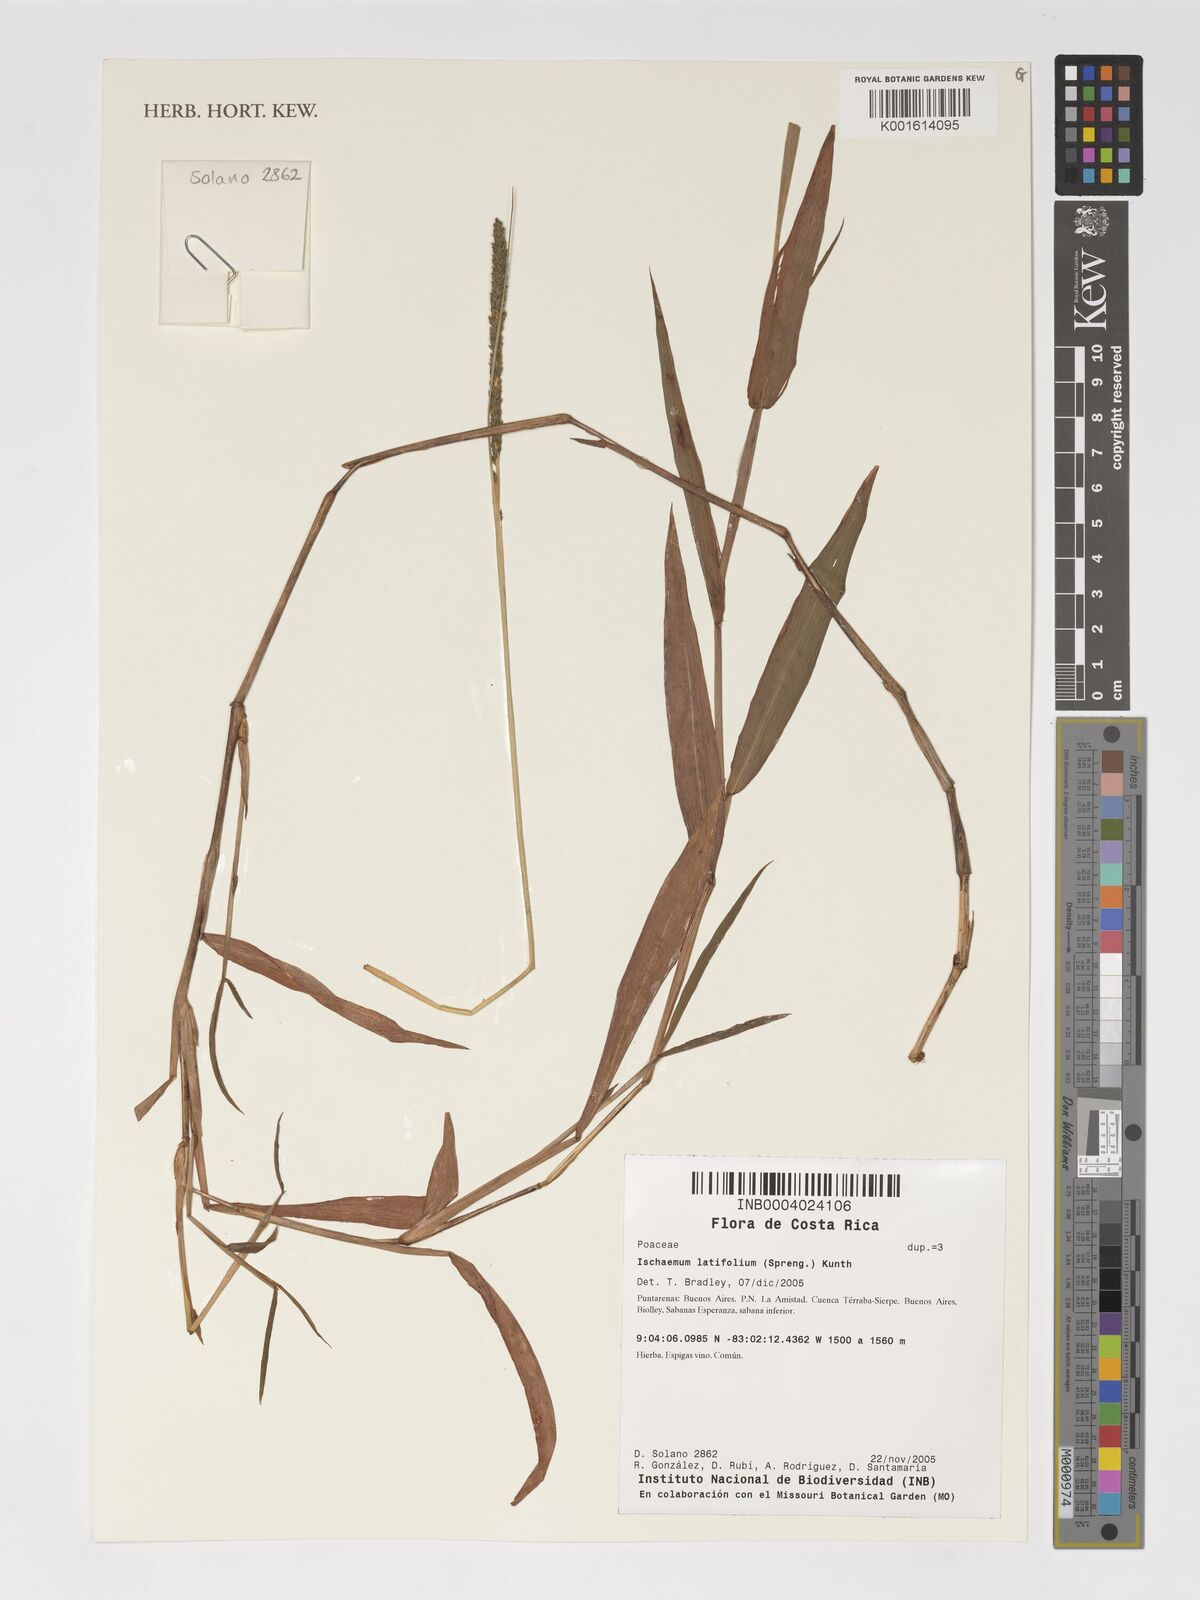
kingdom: Plantae
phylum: Tracheophyta
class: Liliopsida
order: Poales
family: Poaceae
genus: Phacelurus
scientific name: Phacelurus latifolius
